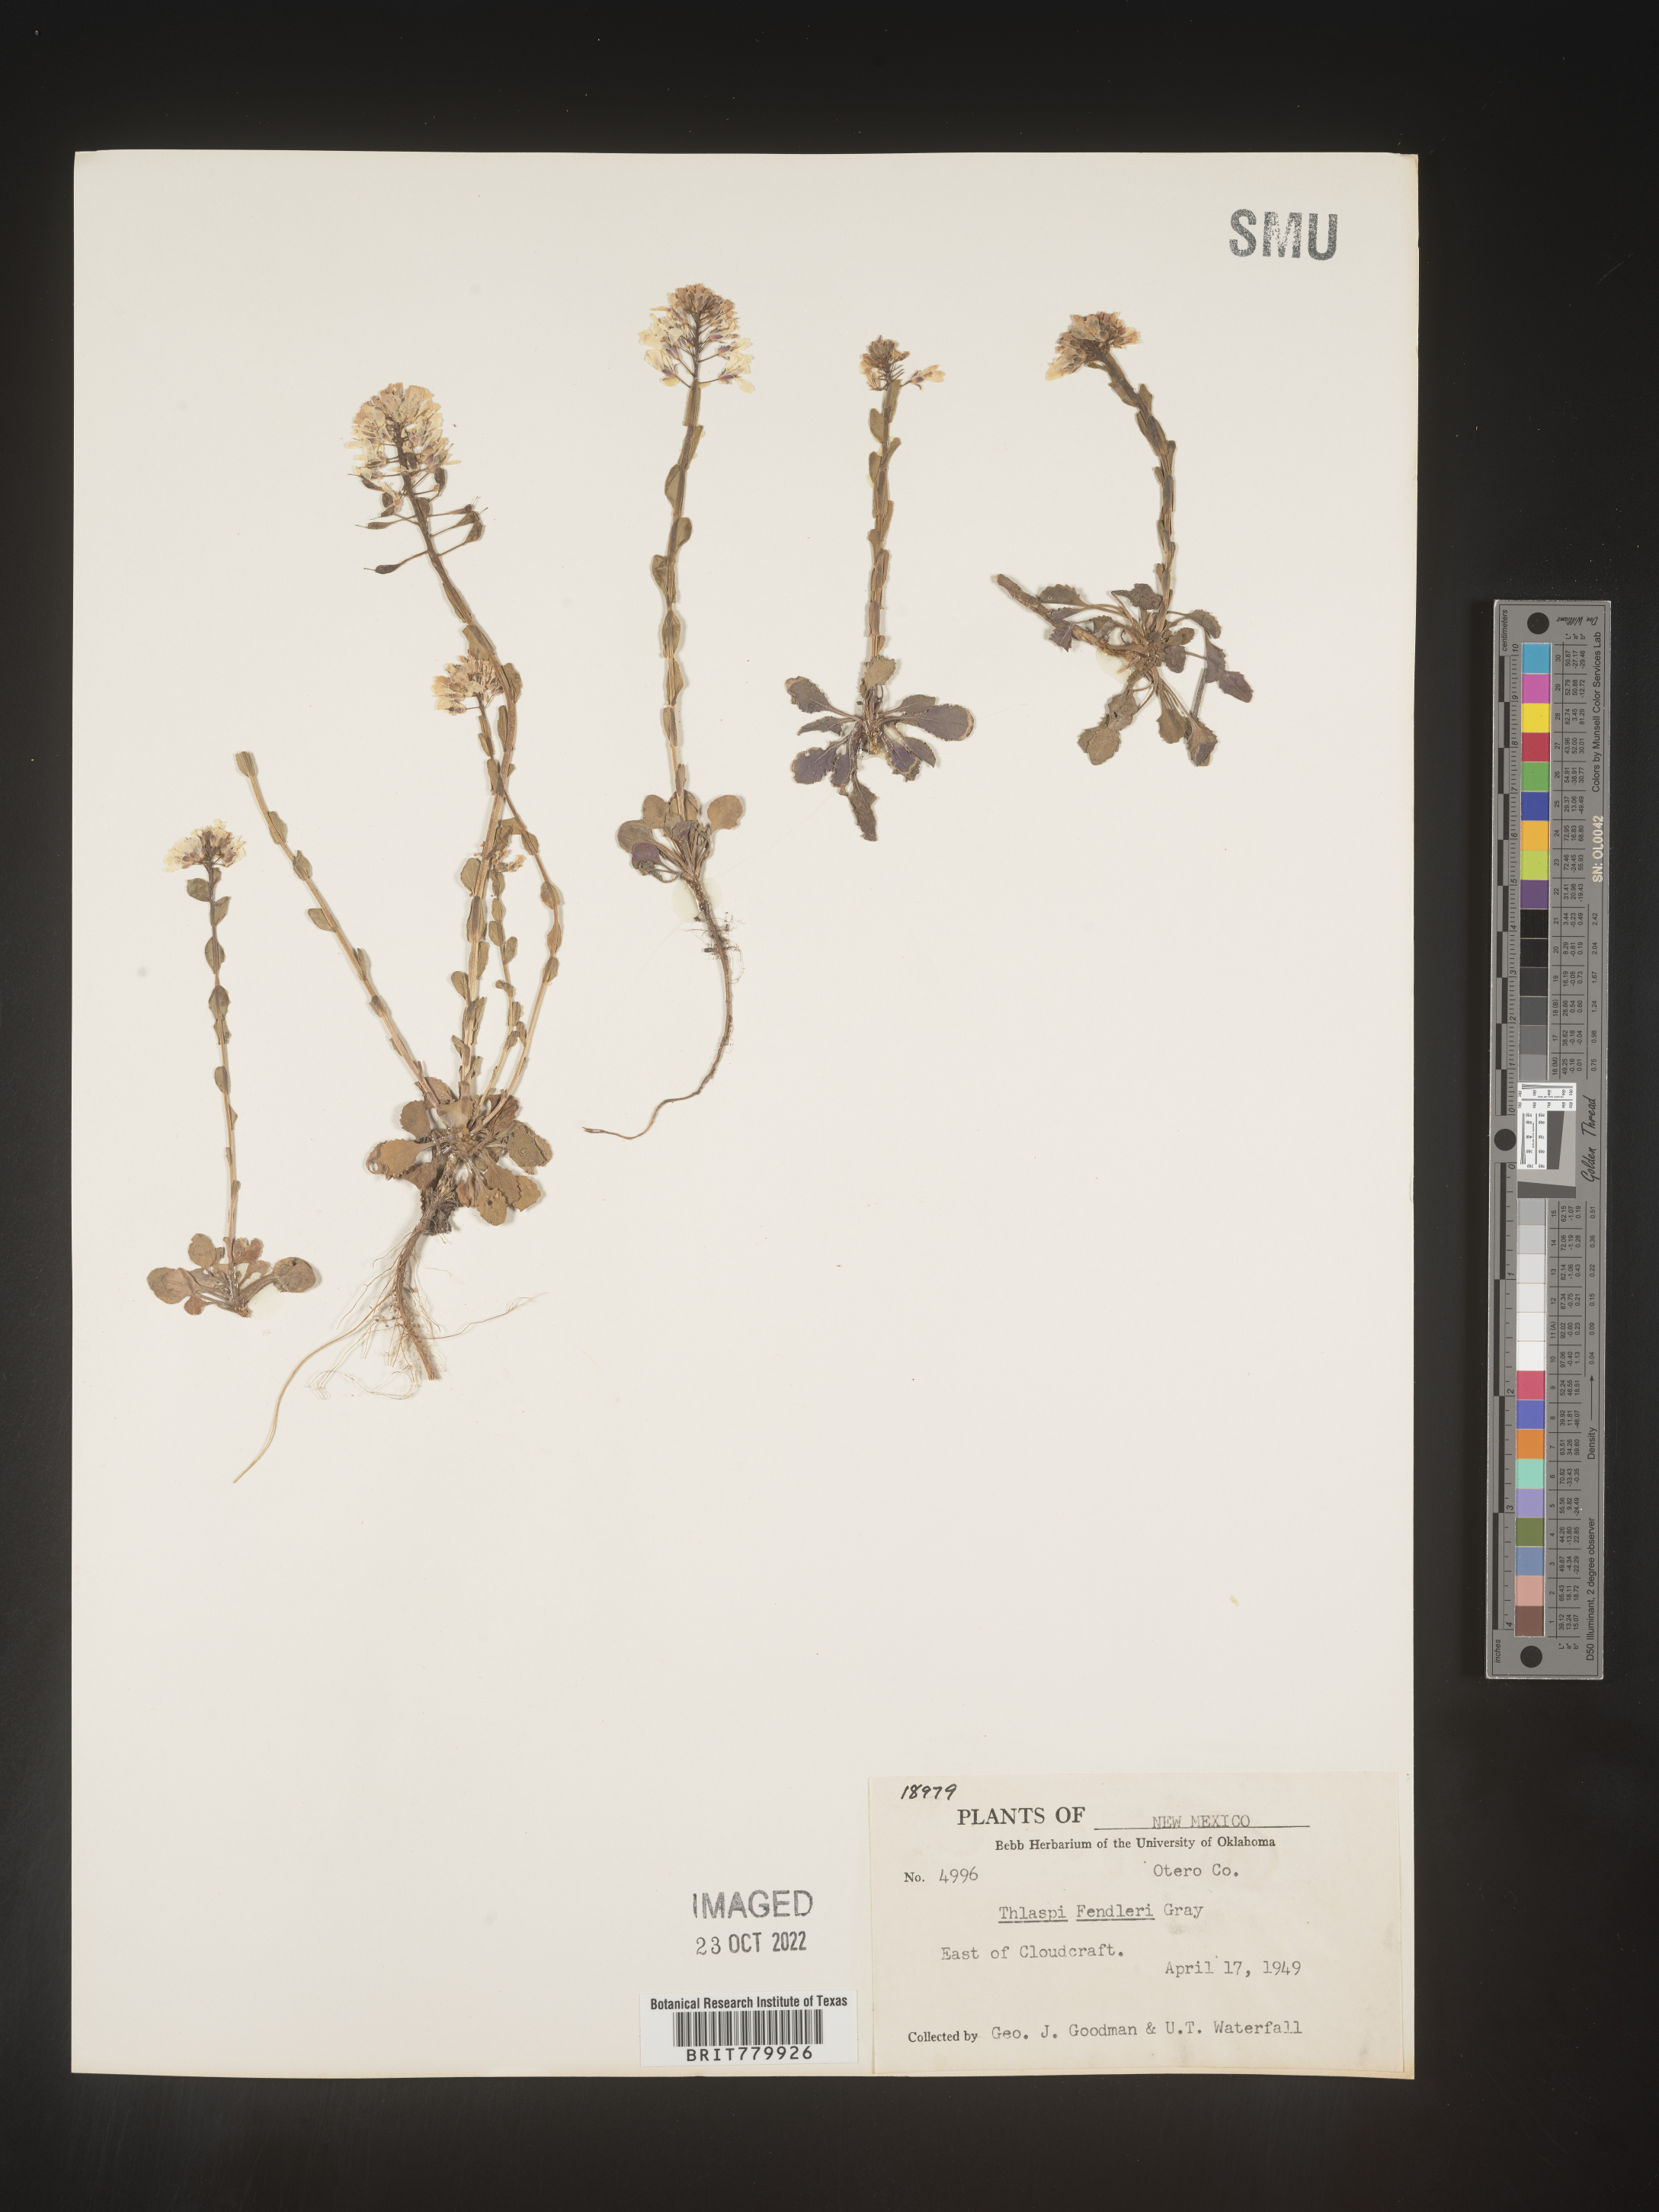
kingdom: Plantae
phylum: Tracheophyta
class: Magnoliopsida
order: Brassicales
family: Brassicaceae
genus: Thlaspi
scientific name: Thlaspi
